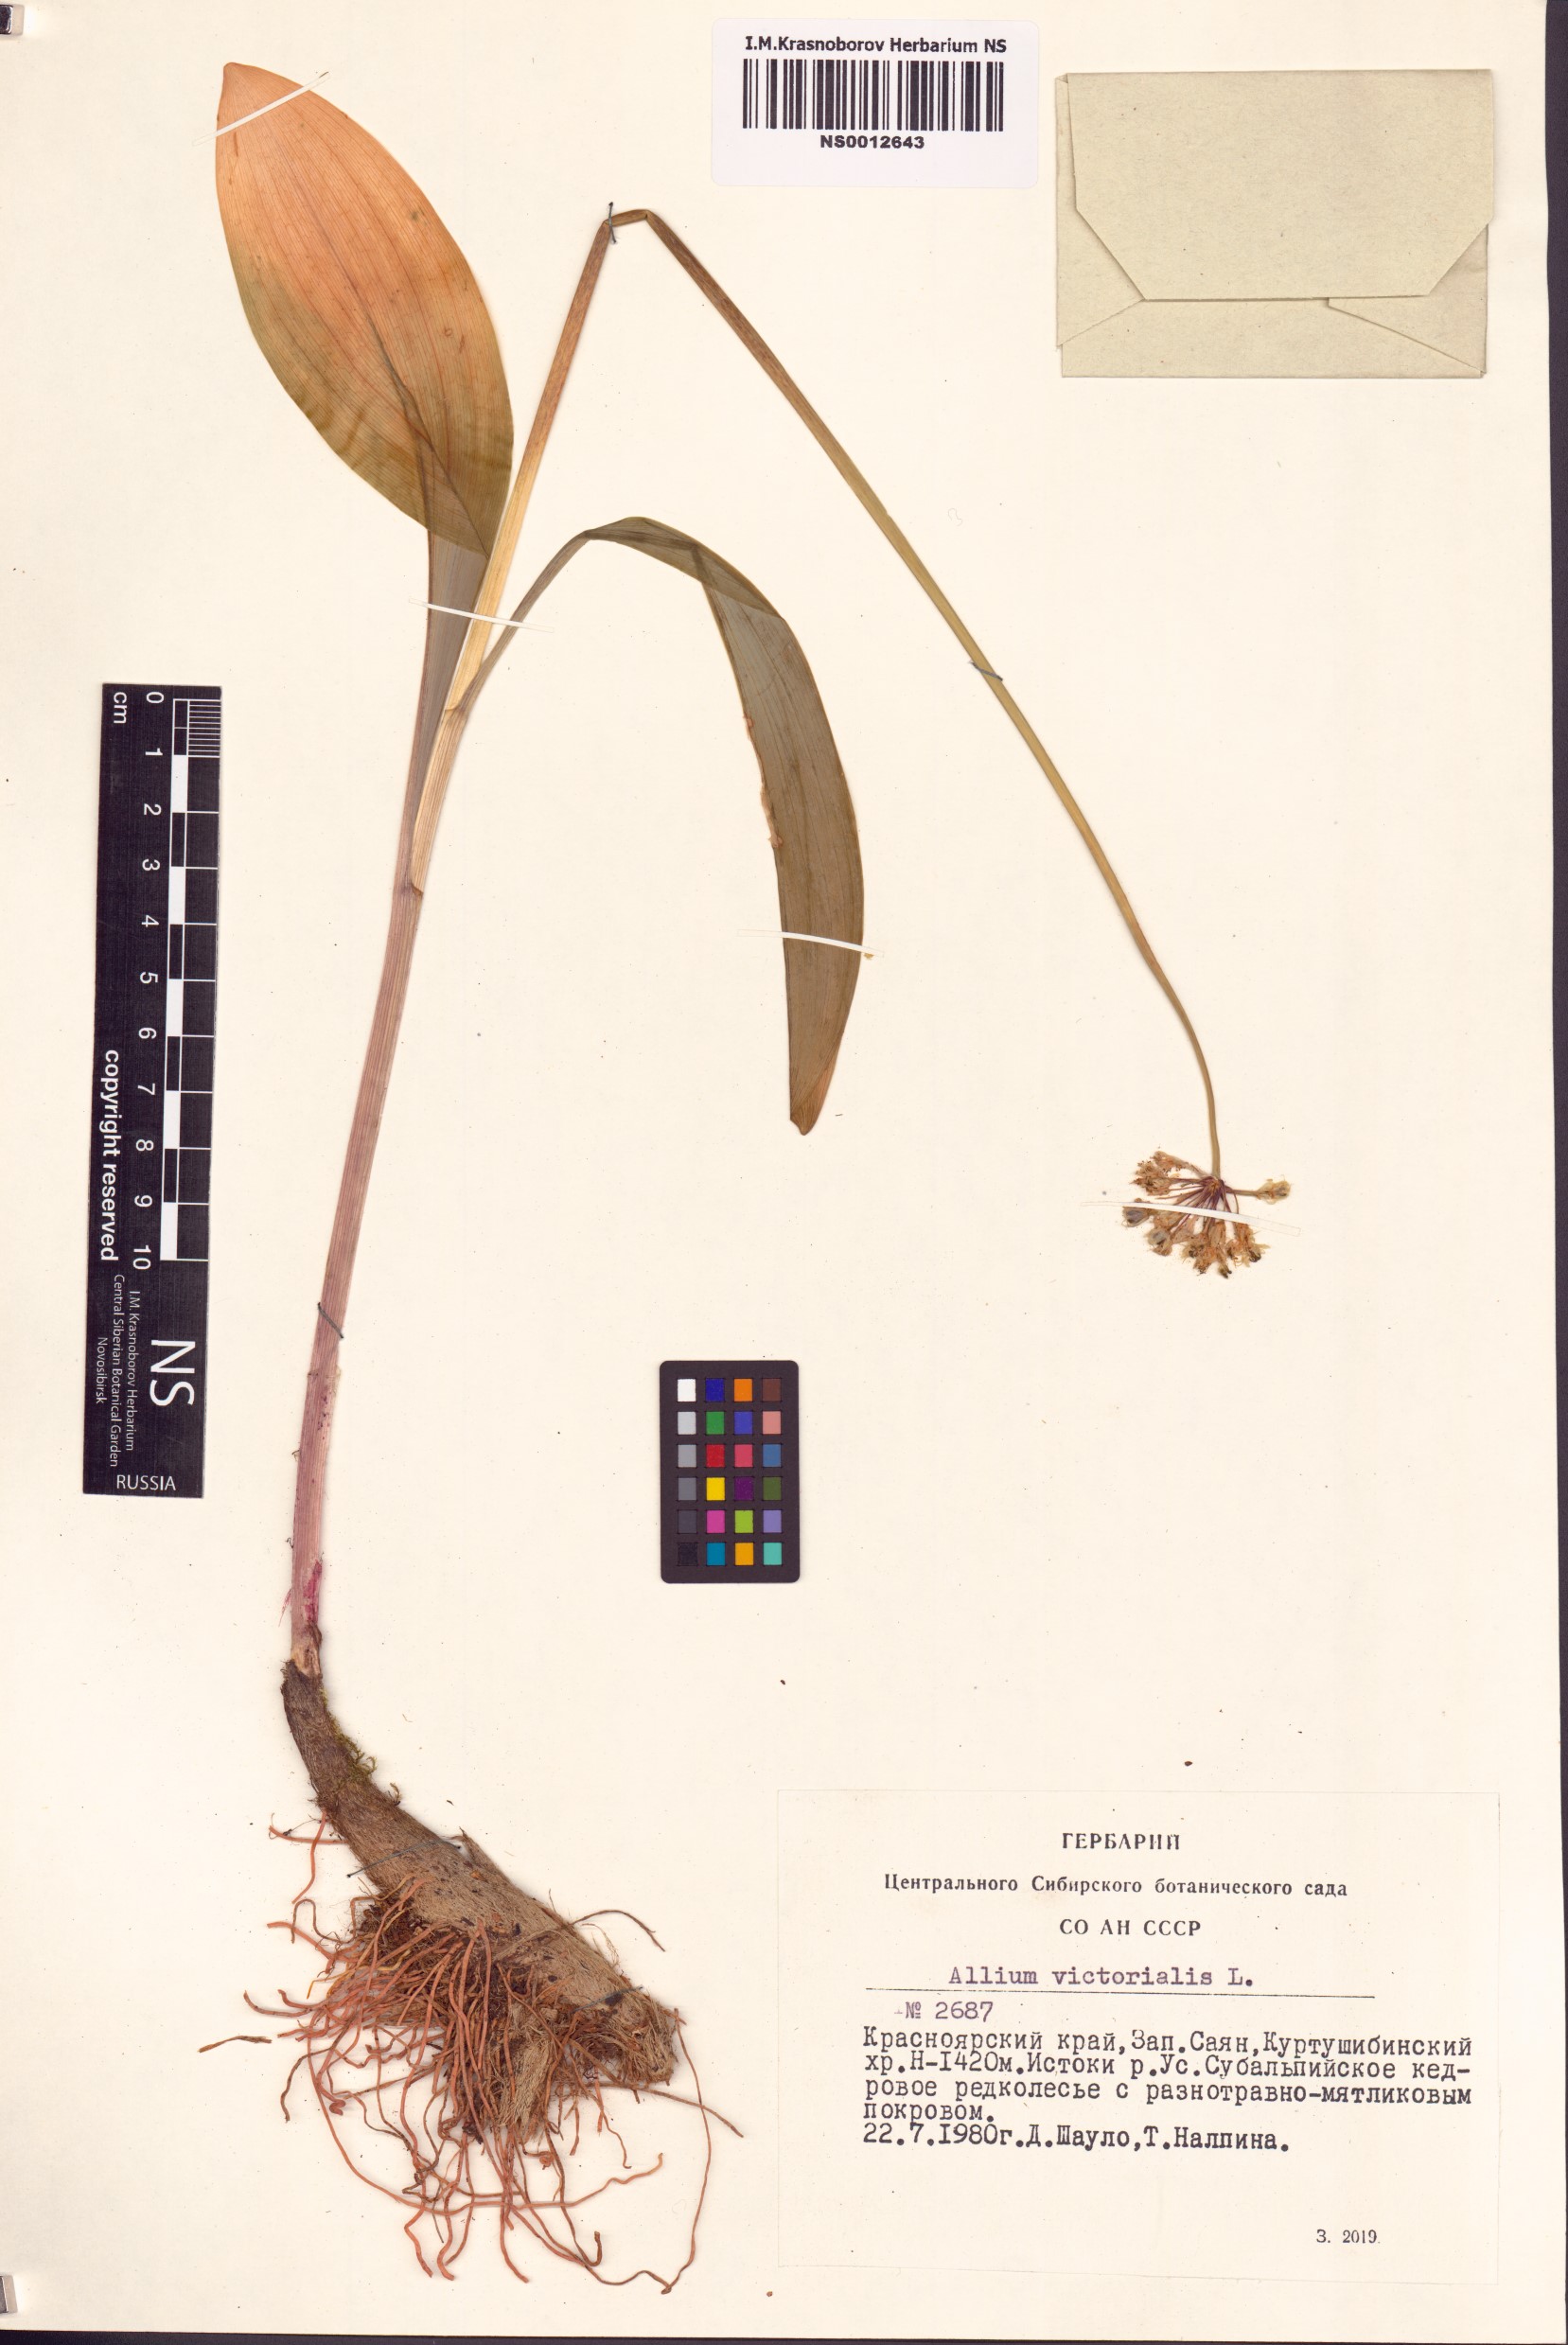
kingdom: Plantae
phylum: Tracheophyta
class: Liliopsida
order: Asparagales
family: Amaryllidaceae
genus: Allium
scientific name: Allium microdictyon
